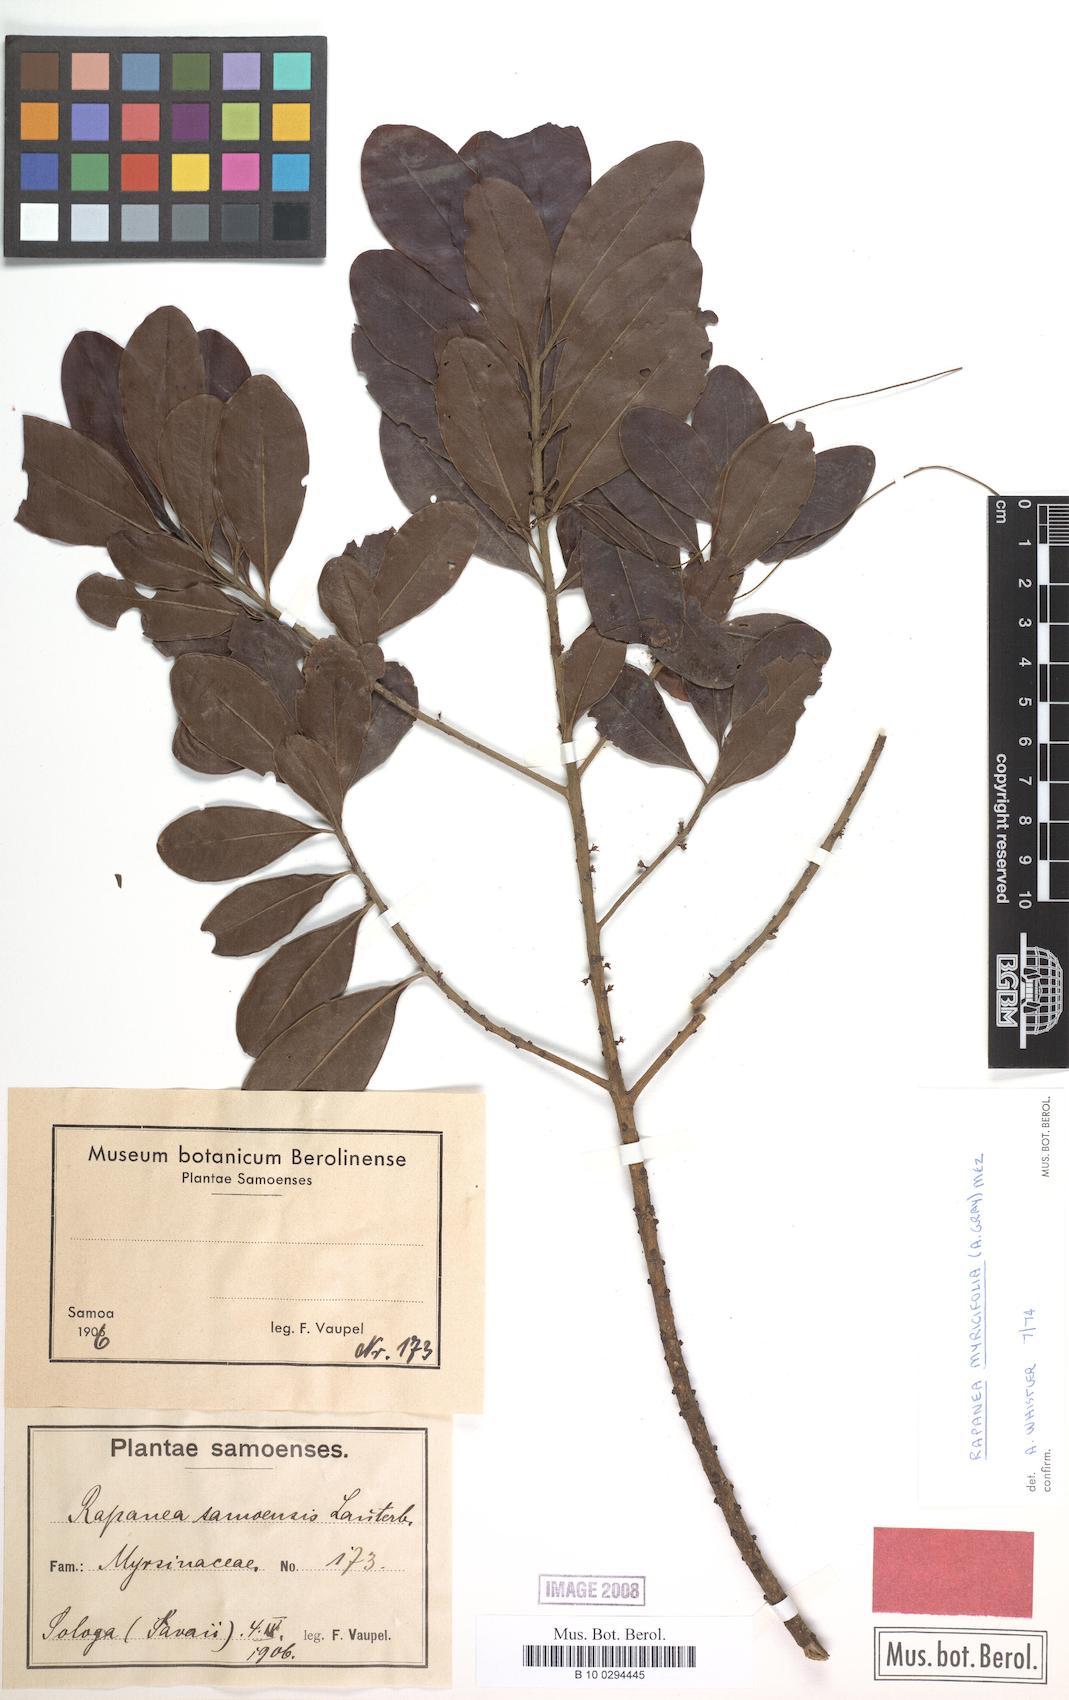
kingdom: Plantae
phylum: Tracheophyta
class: Magnoliopsida
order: Ericales
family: Primulaceae
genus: Myrsine
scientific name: Myrsine myricifolia
